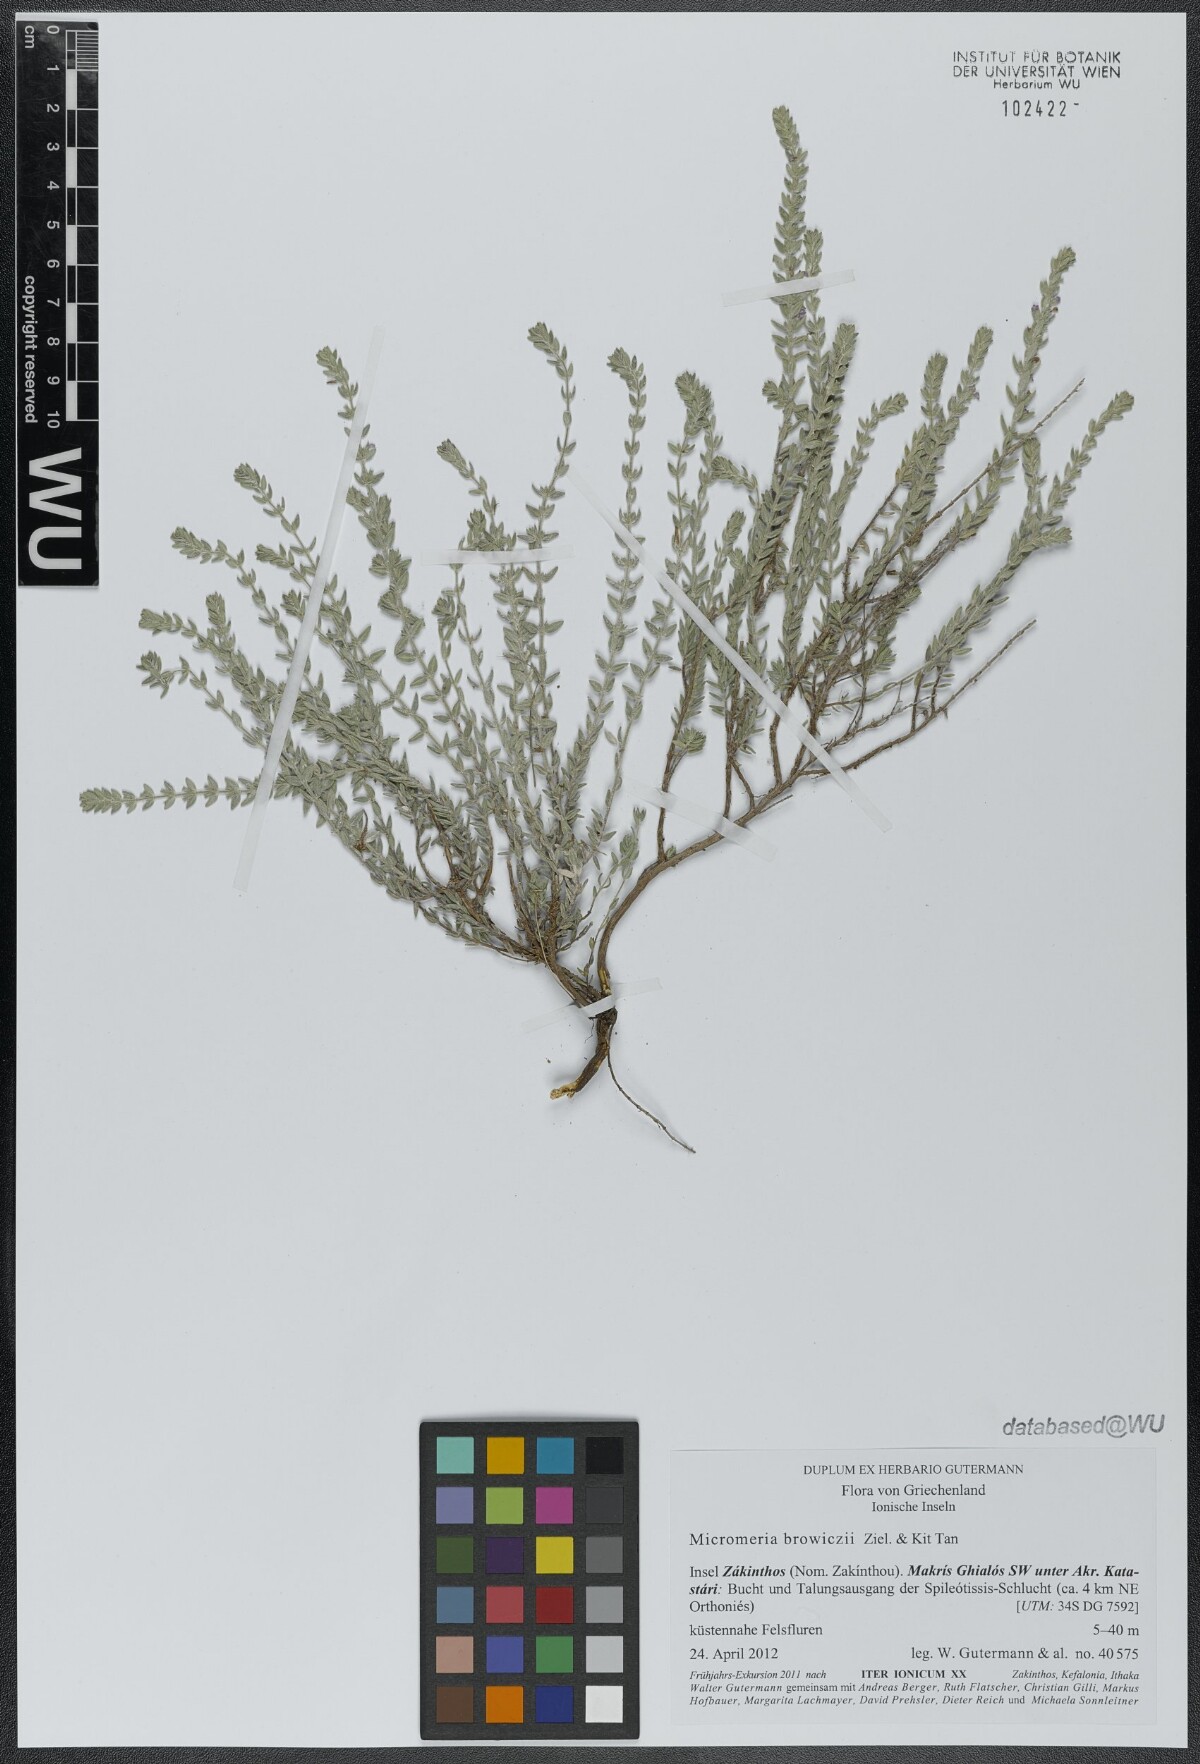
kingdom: Plantae
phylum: Tracheophyta
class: Magnoliopsida
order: Lamiales
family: Lamiaceae
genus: Micromeria
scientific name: Micromeria browiczii
